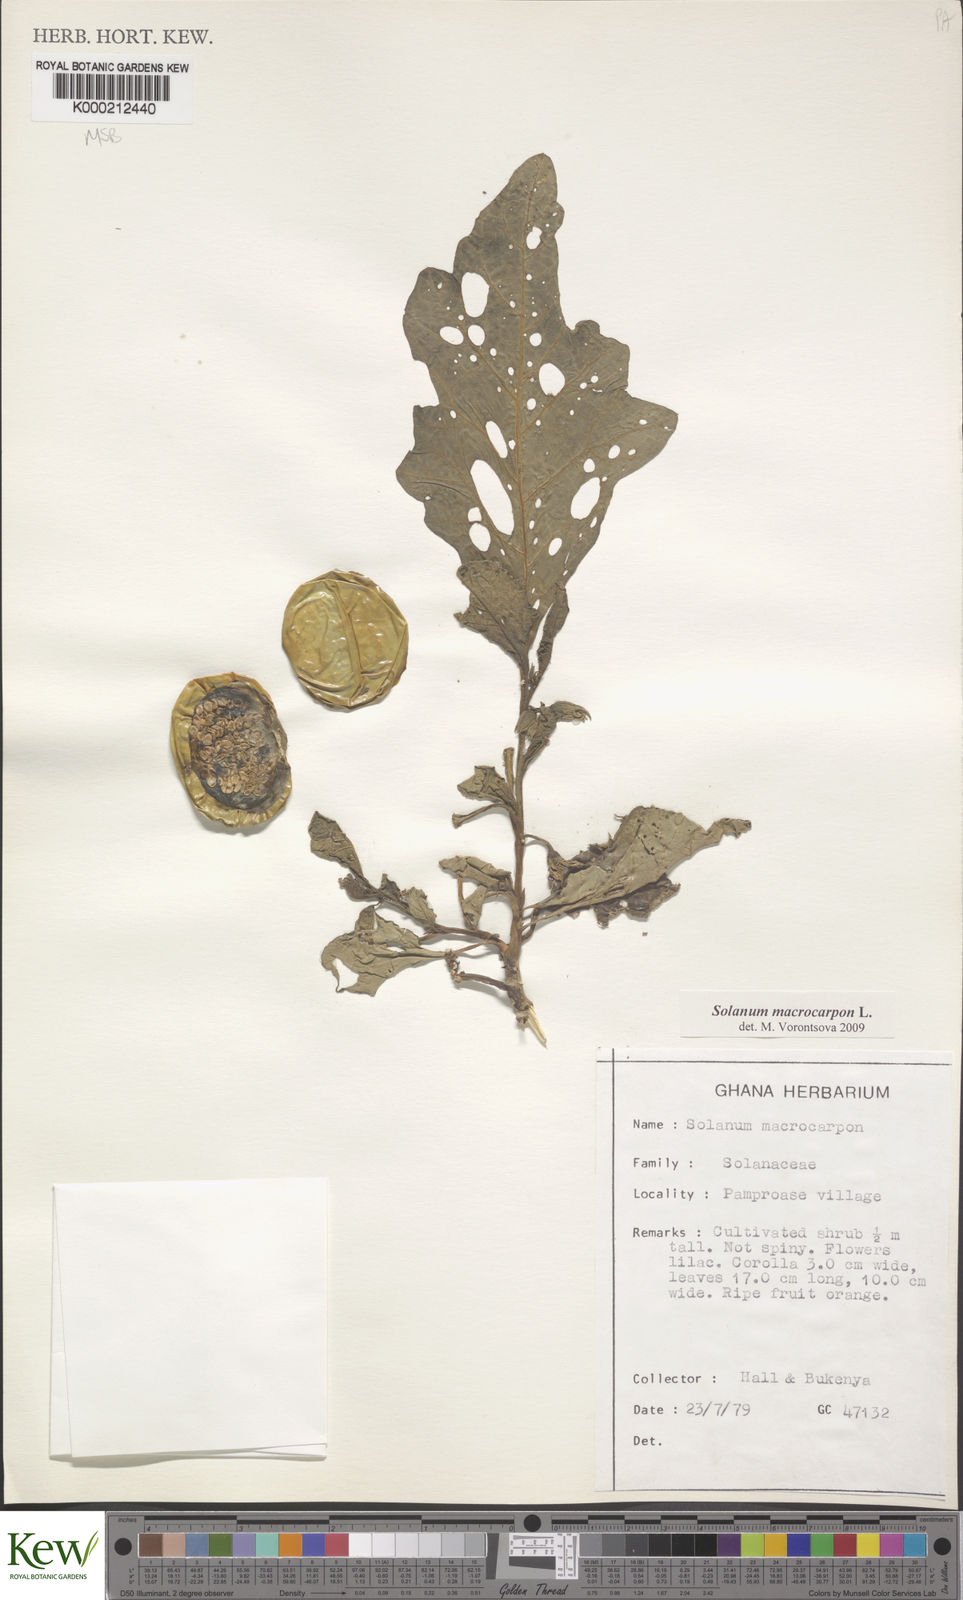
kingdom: Plantae
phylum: Tracheophyta
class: Magnoliopsida
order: Solanales
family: Solanaceae
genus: Solanum
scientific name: Solanum macrocarpon
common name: African eggplant
